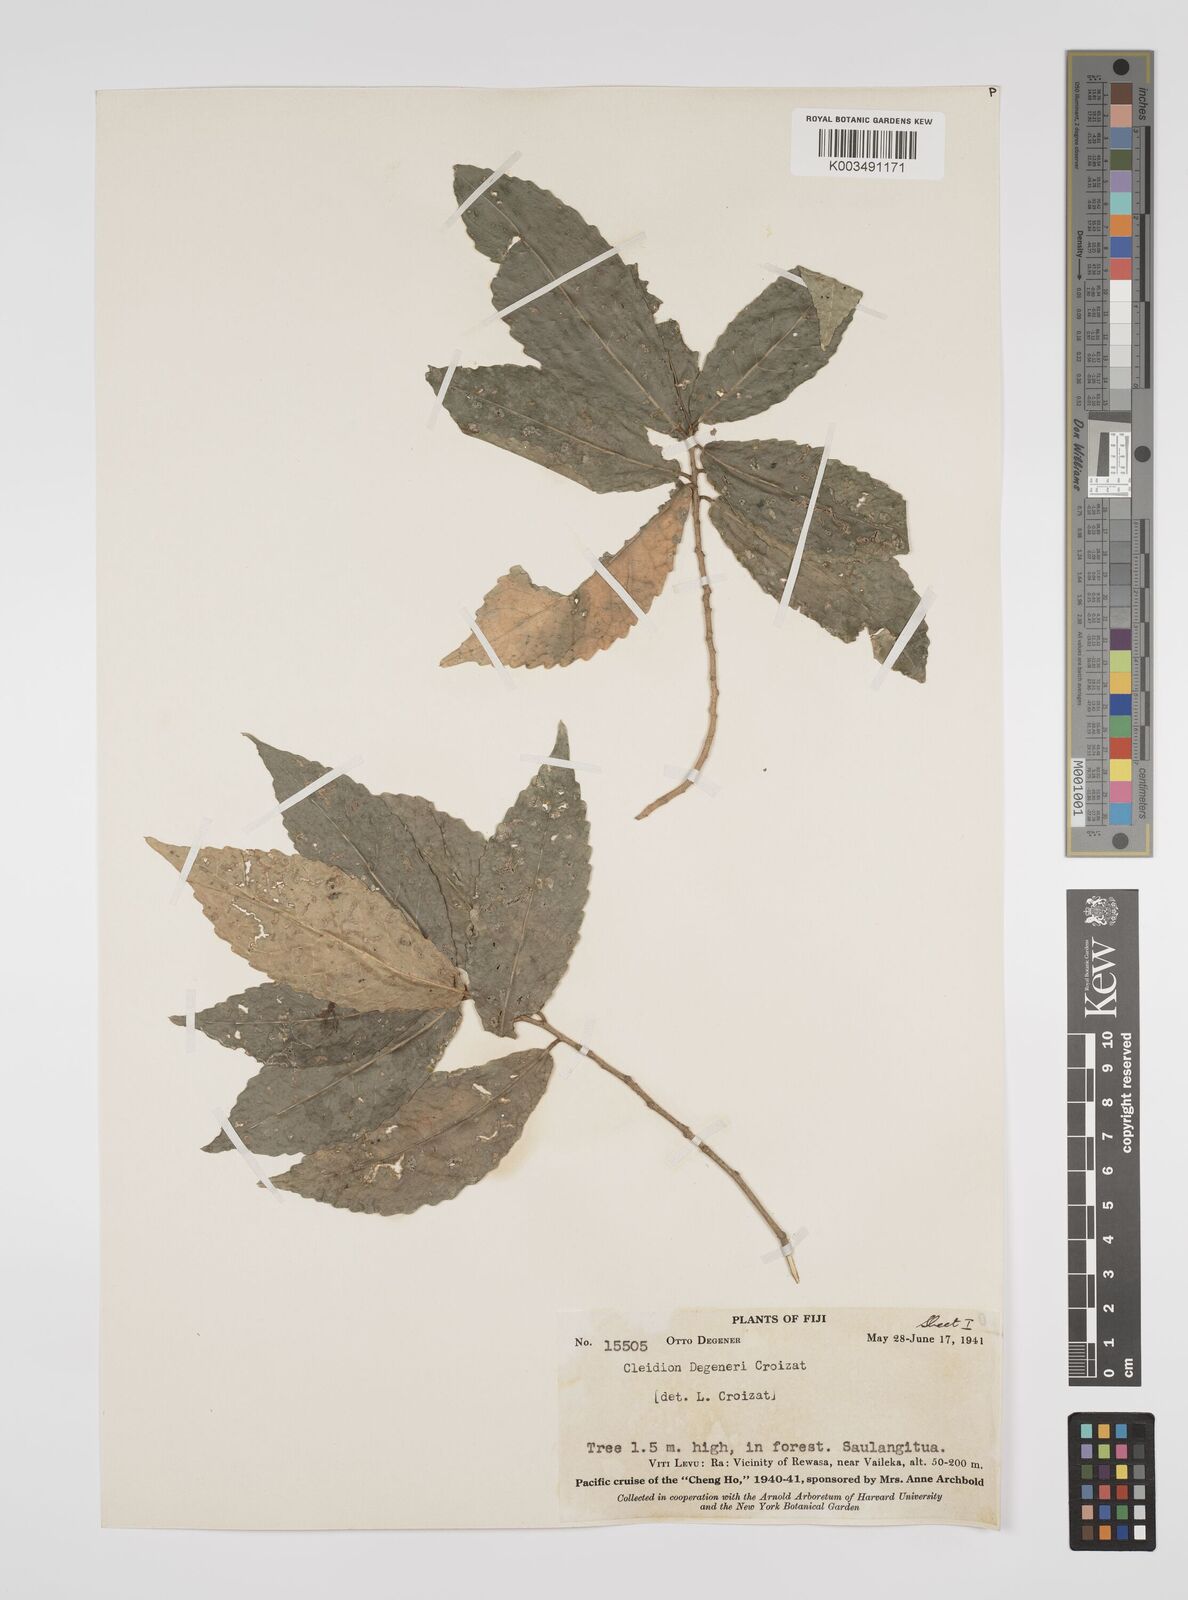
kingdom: Plantae
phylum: Tracheophyta
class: Magnoliopsida
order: Malpighiales
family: Euphorbiaceae
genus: Cleidion
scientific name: Cleidion leptostachyum
